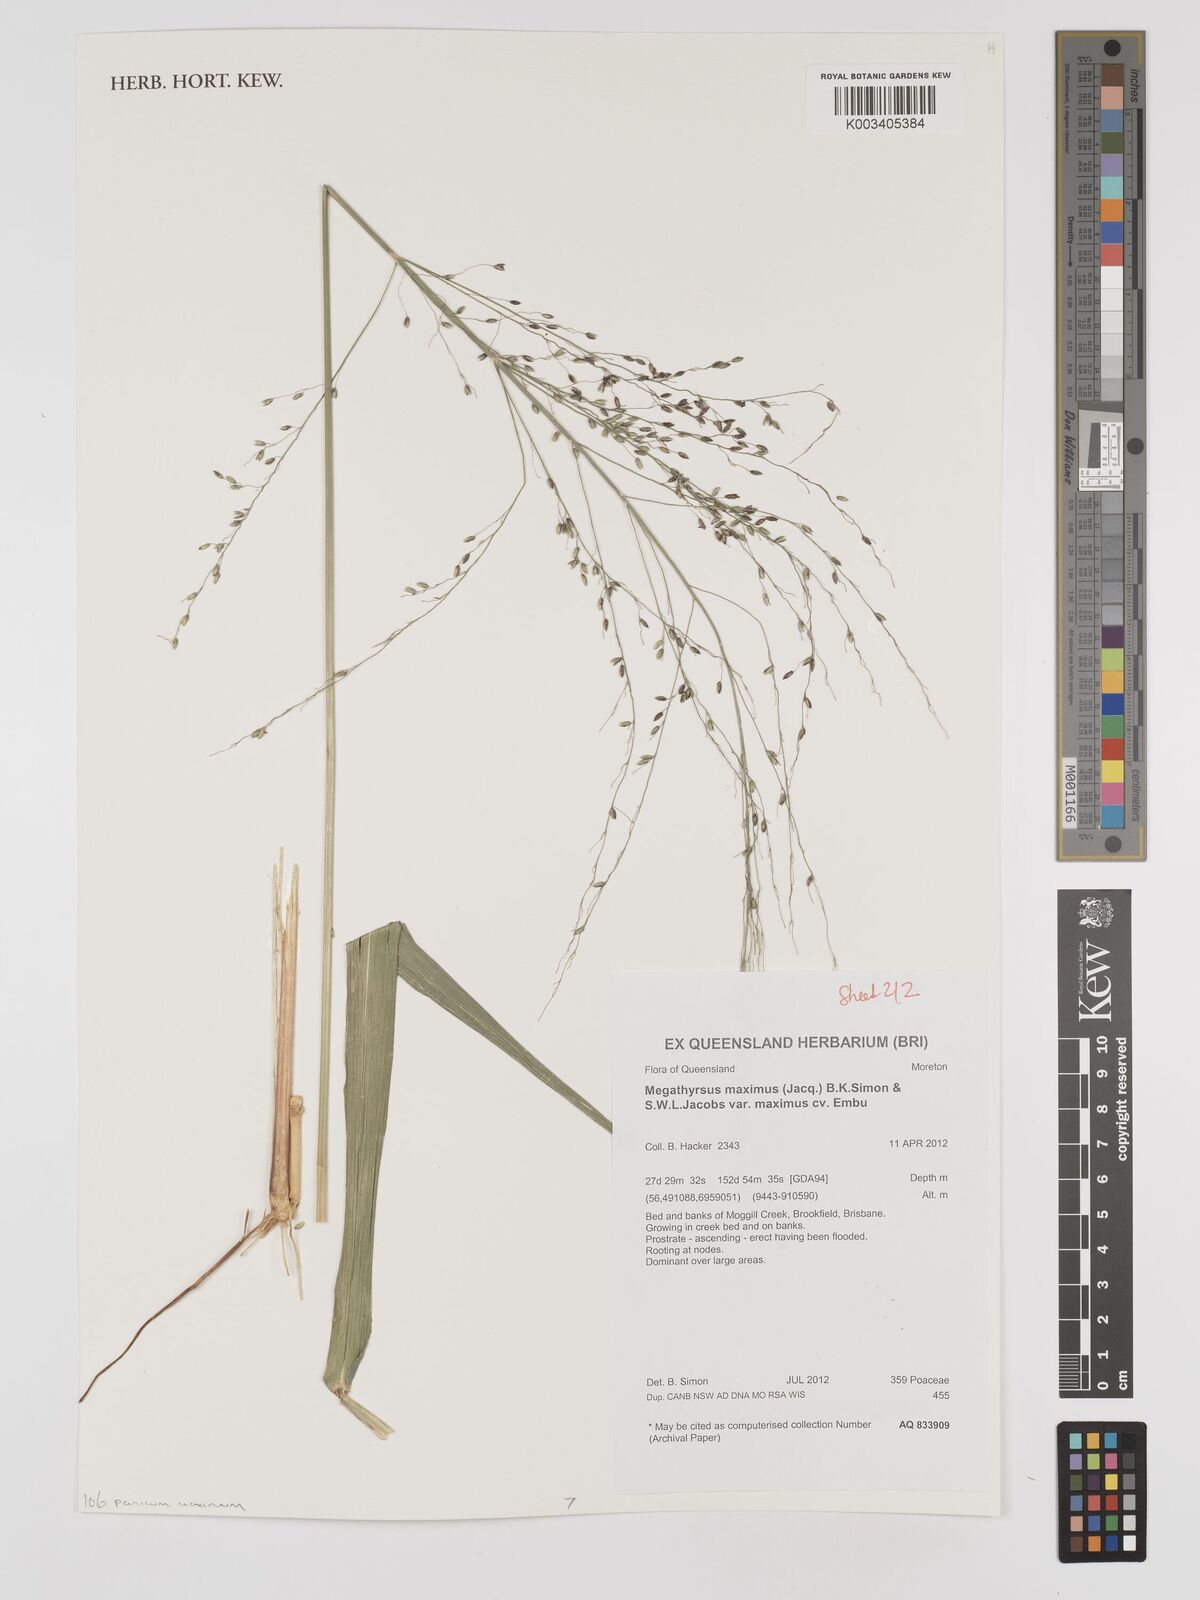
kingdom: Plantae
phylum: Tracheophyta
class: Liliopsida
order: Poales
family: Poaceae
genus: Megathyrsus
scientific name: Megathyrsus maximus
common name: Guineagrass
